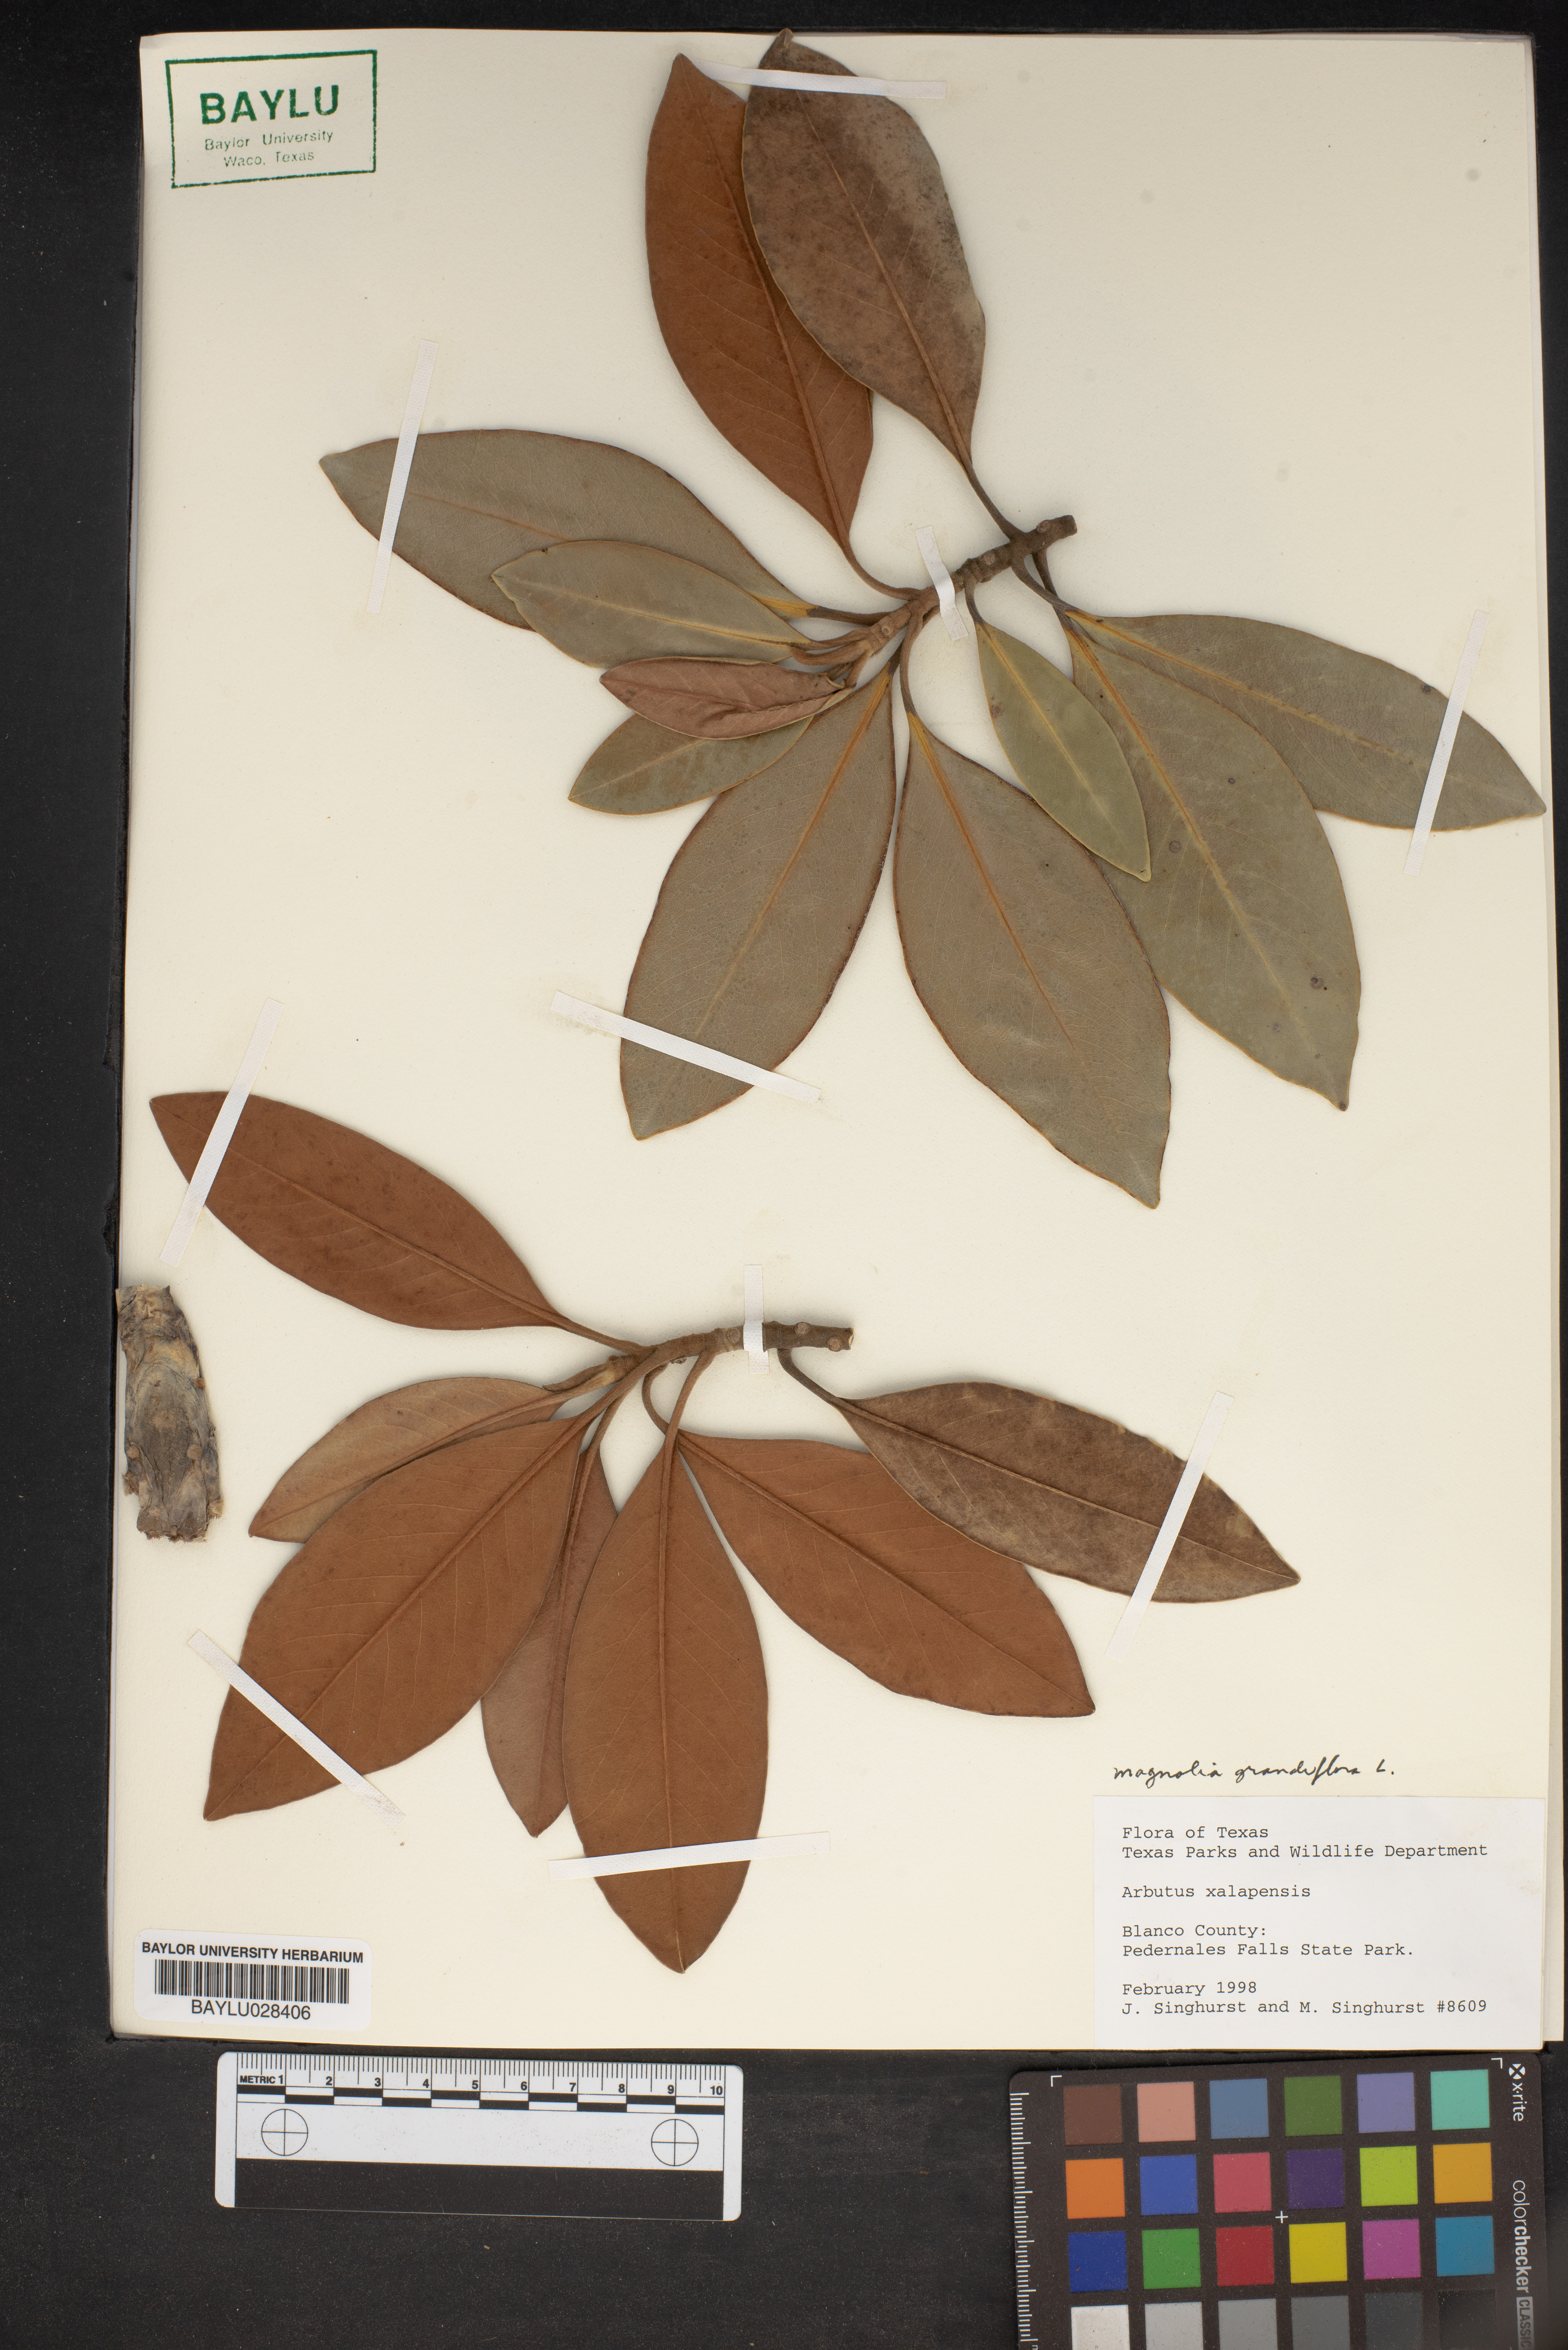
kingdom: Plantae
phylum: Tracheophyta
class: Magnoliopsida
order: Ericales
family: Ericaceae
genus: Arbutus
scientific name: Arbutus xalapensis
